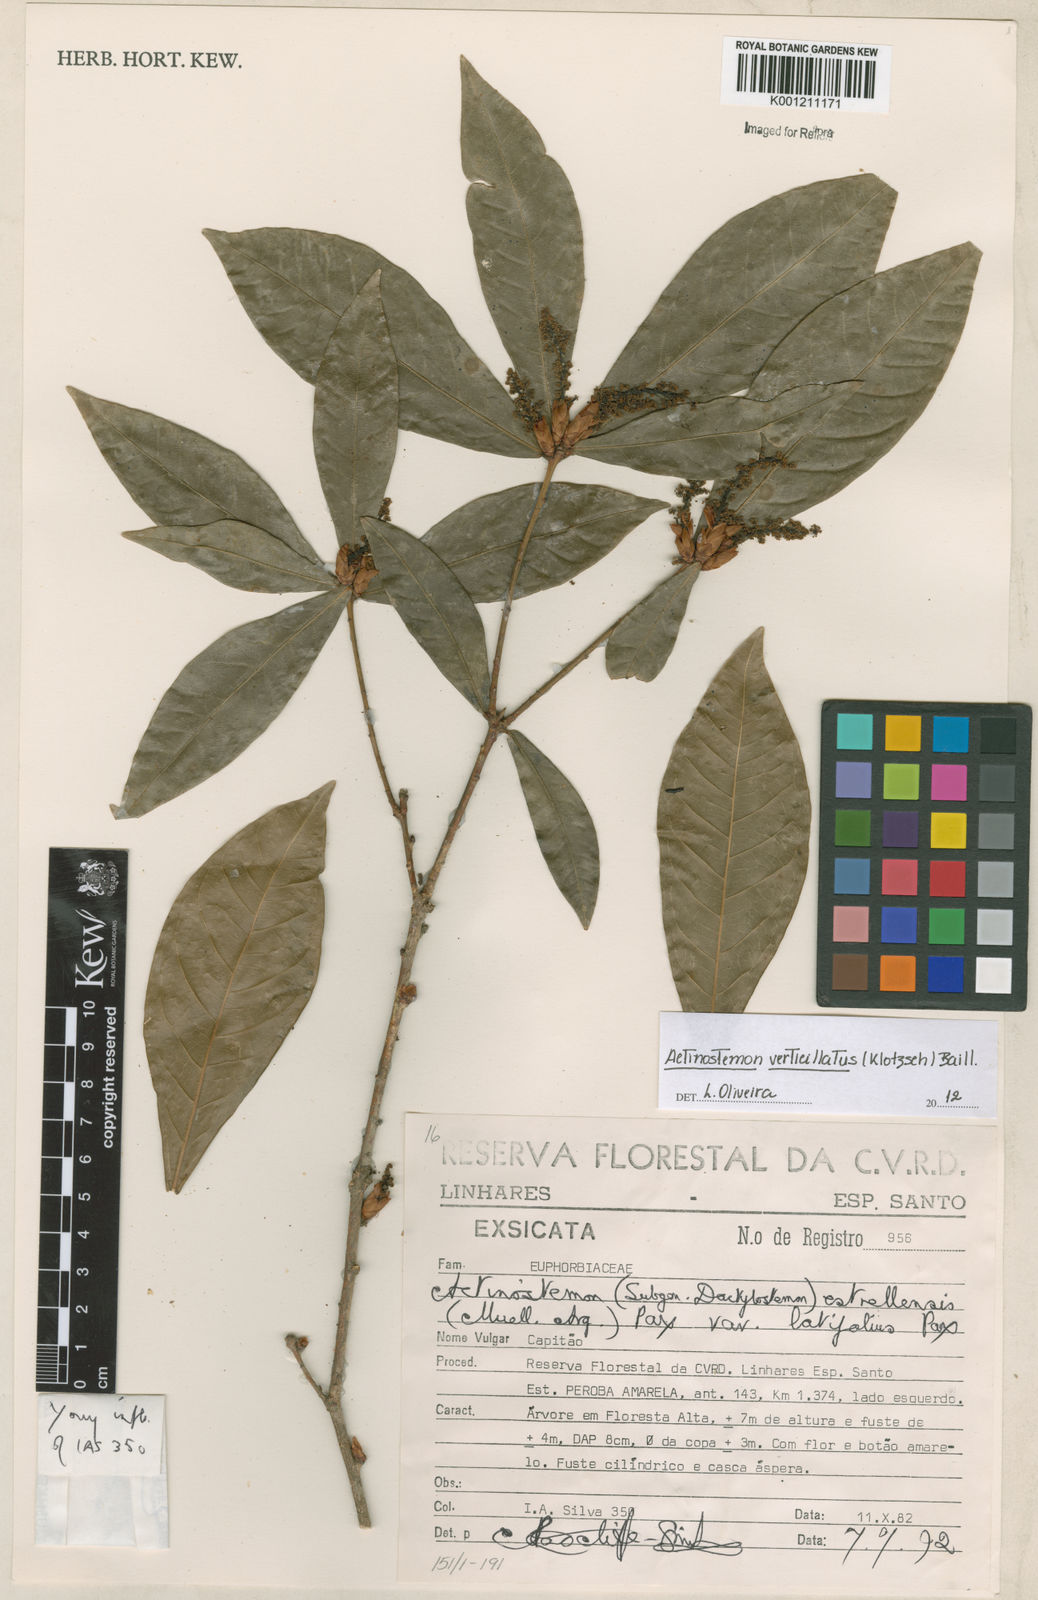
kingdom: Plantae
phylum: Tracheophyta
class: Magnoliopsida
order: Malpighiales
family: Euphorbiaceae
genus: Actinostemon
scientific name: Actinostemon klotzschii
